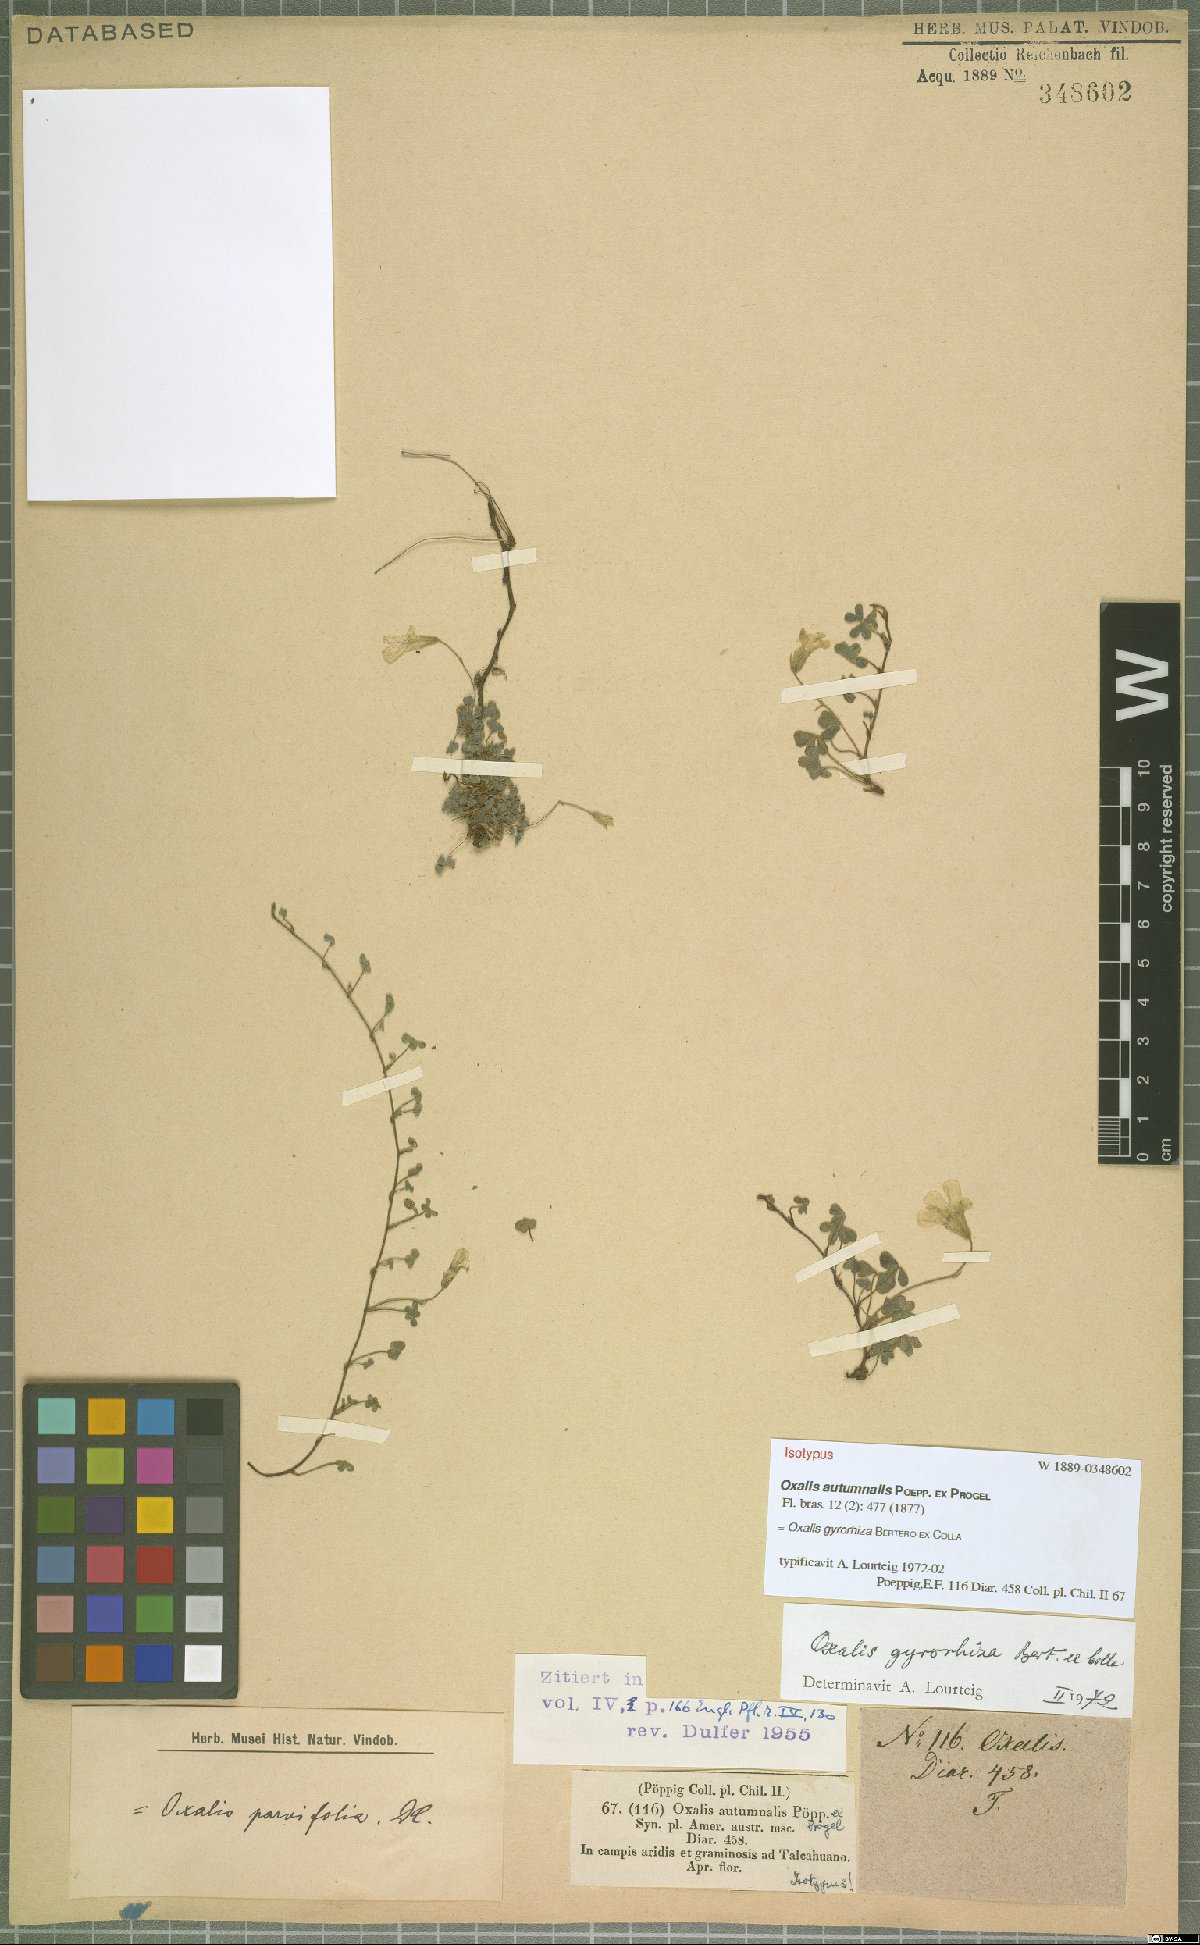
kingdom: Plantae
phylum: Tracheophyta
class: Magnoliopsida
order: Oxalidales
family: Oxalidaceae
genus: Oxalis
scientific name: Oxalis gyrorhiza
